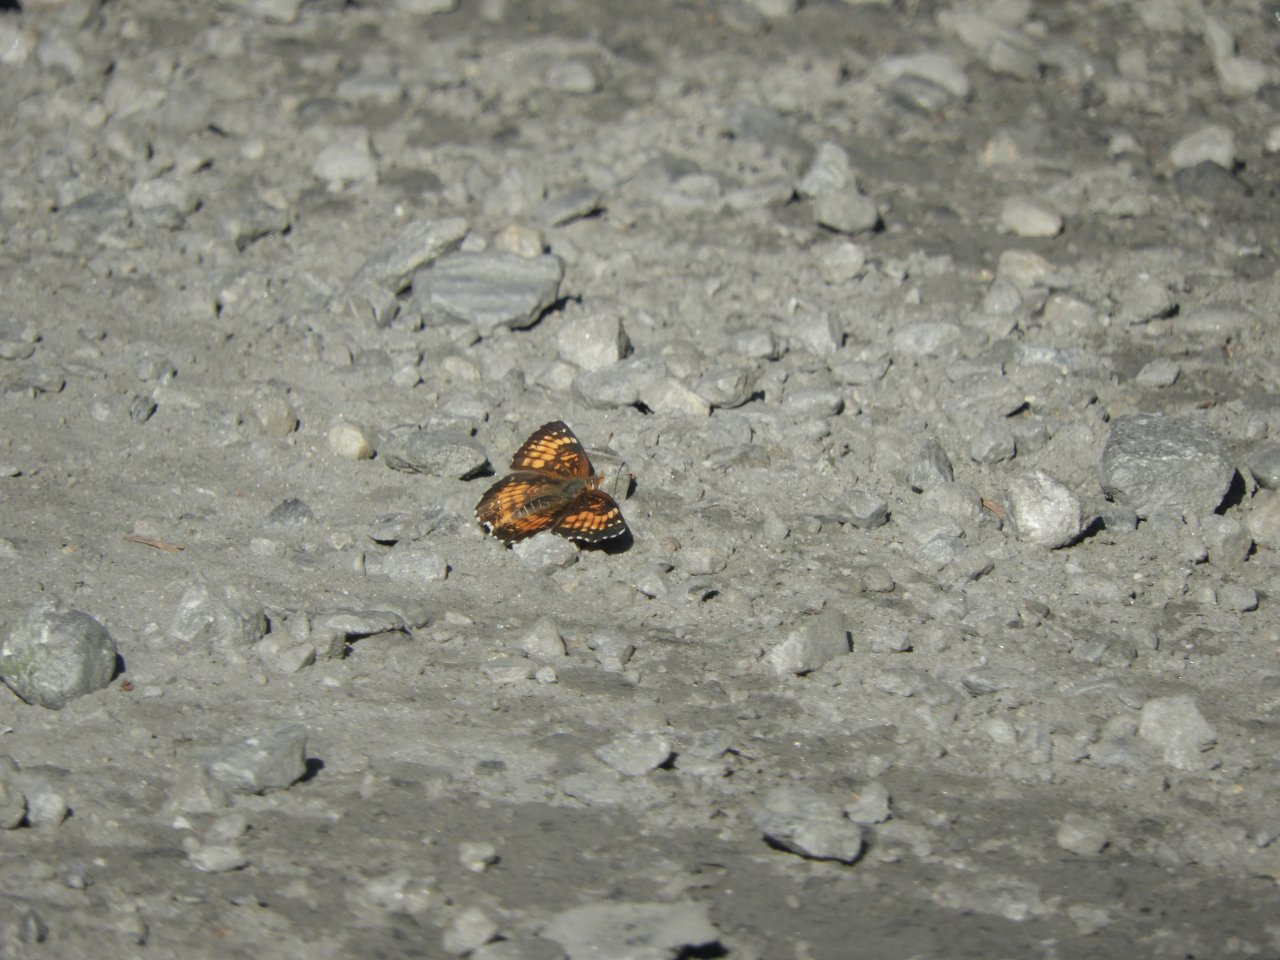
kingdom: Animalia
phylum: Arthropoda
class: Insecta
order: Lepidoptera
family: Nymphalidae
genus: Chlosyne
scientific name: Chlosyne harrisii
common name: Harris's Checkerspot
